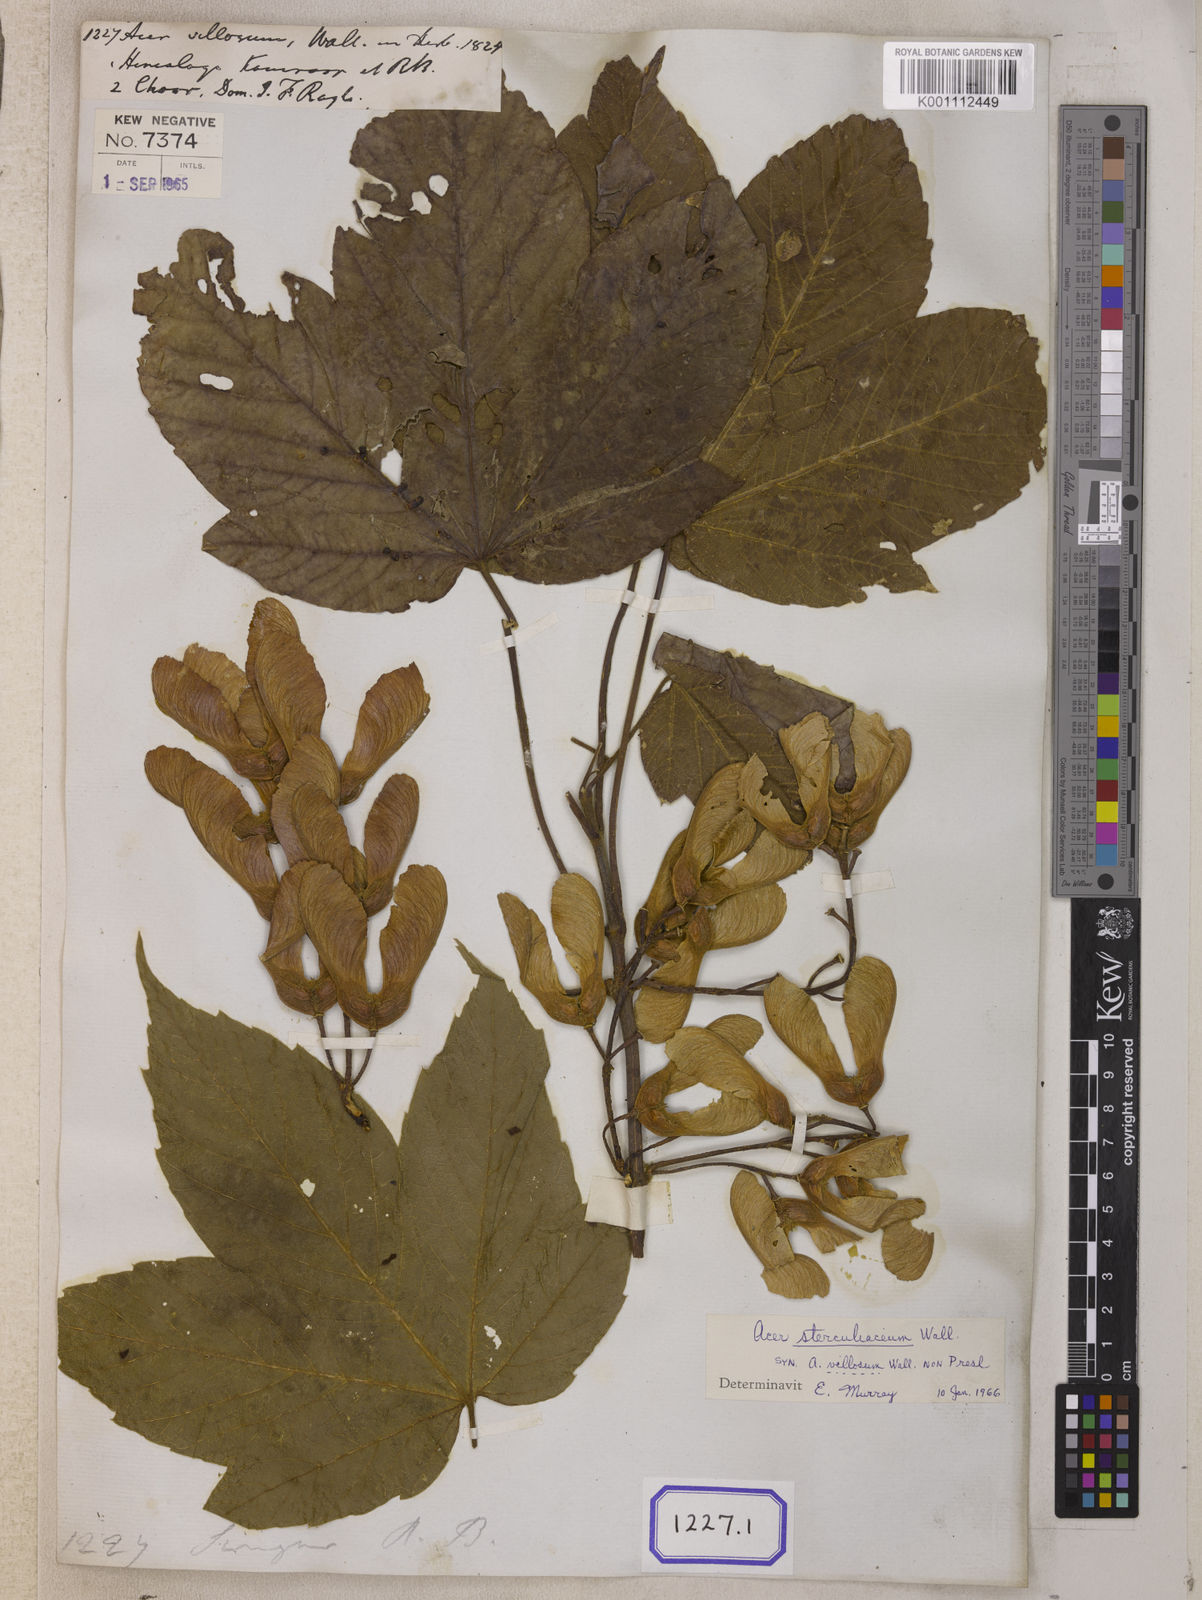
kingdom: Plantae
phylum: Tracheophyta
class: Magnoliopsida
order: Sapindales
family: Sapindaceae
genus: Acer
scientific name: Acer sterculiaceum
